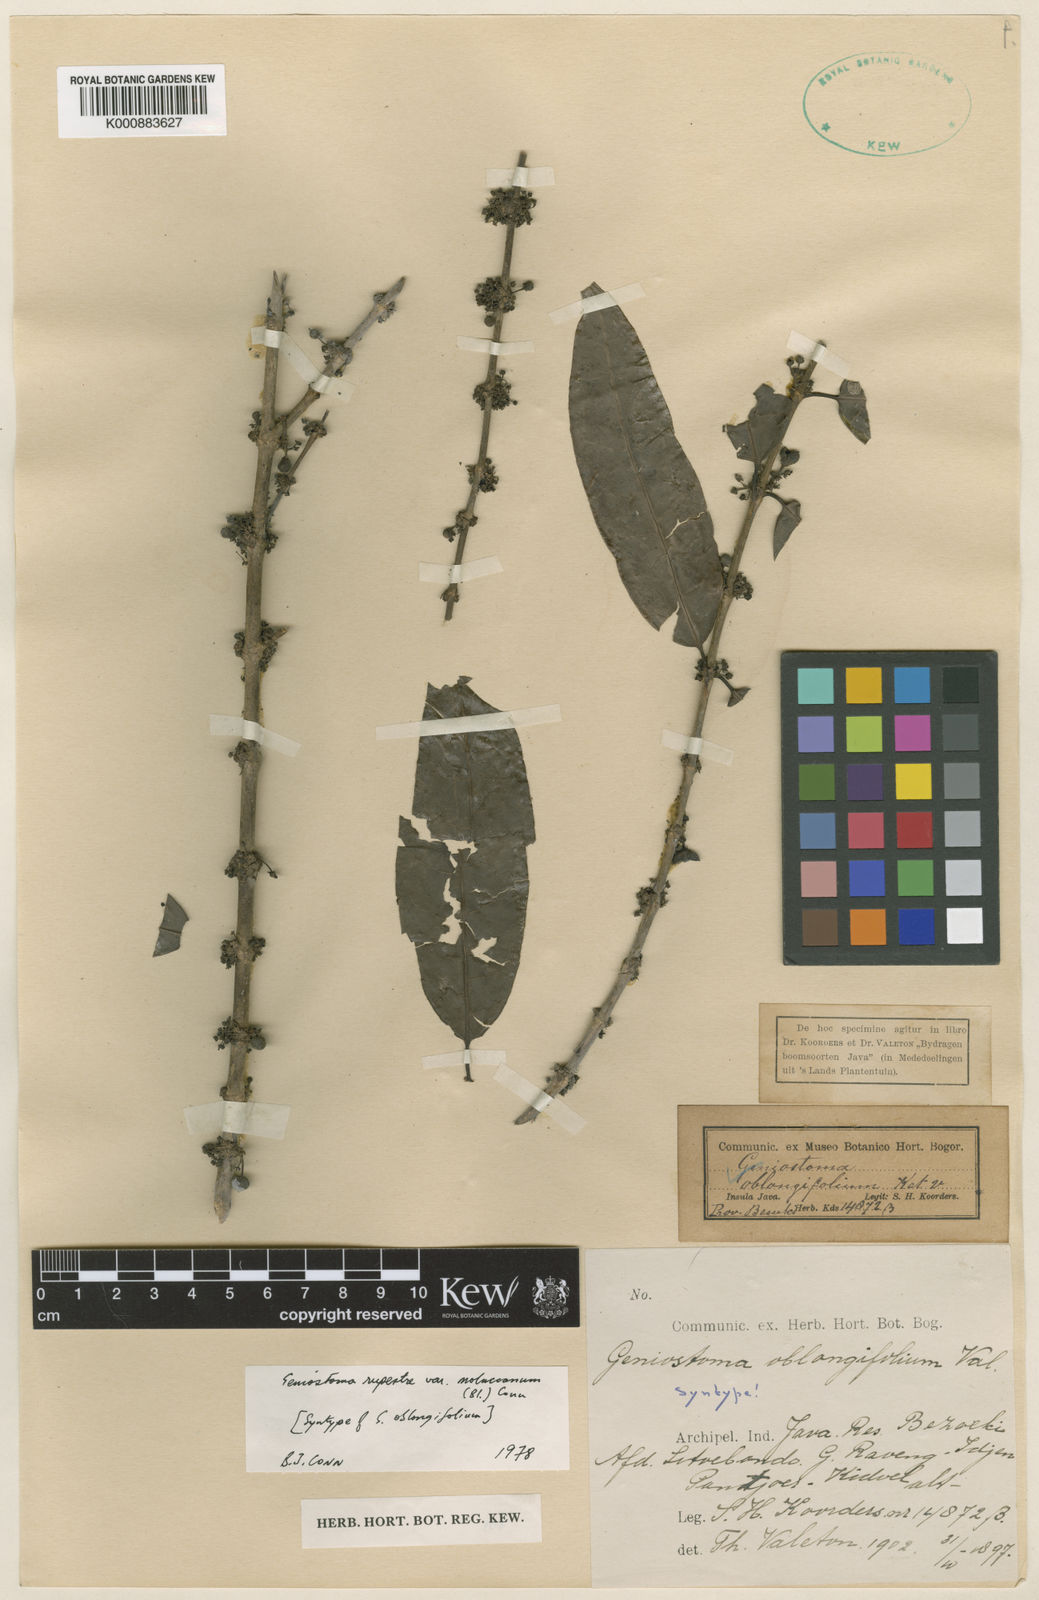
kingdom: Plantae
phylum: Tracheophyta
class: Magnoliopsida
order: Gentianales
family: Loganiaceae
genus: Geniostoma
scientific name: Geniostoma rupestre
